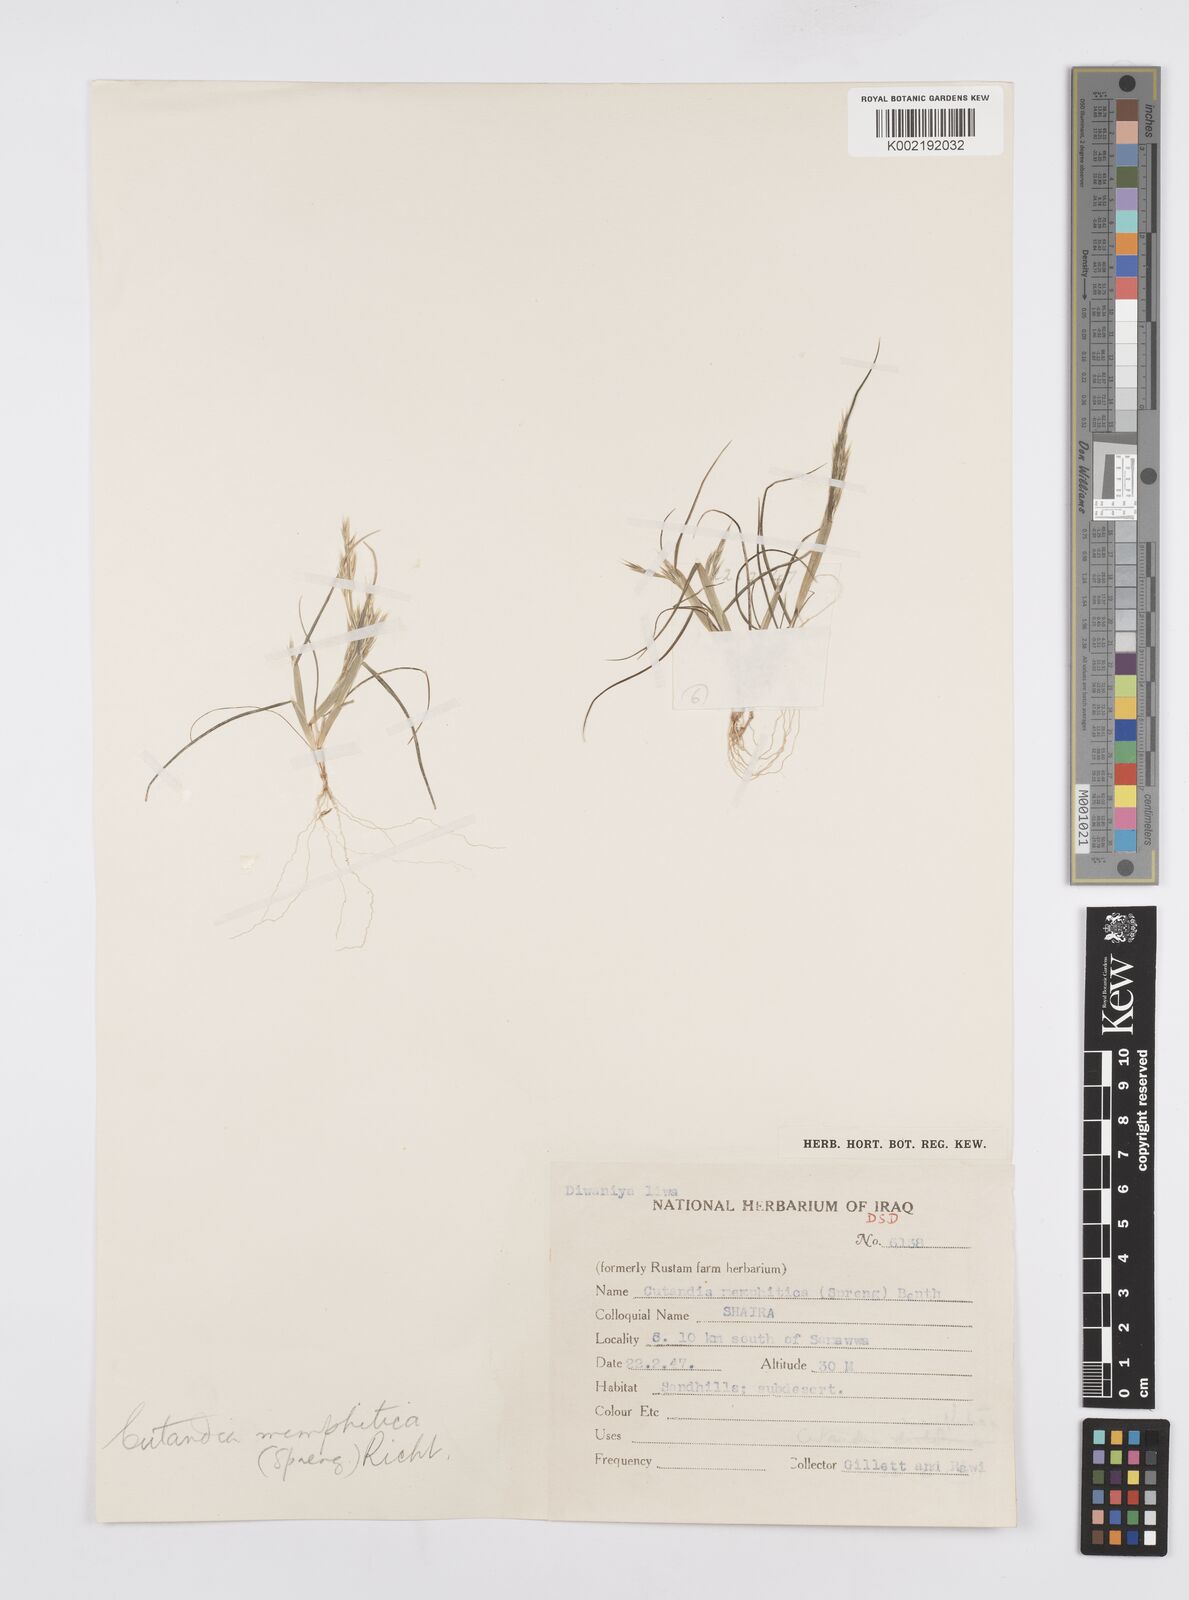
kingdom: Plantae
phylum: Tracheophyta
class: Liliopsida
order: Poales
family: Poaceae
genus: Cutandia
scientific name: Cutandia memphitica
